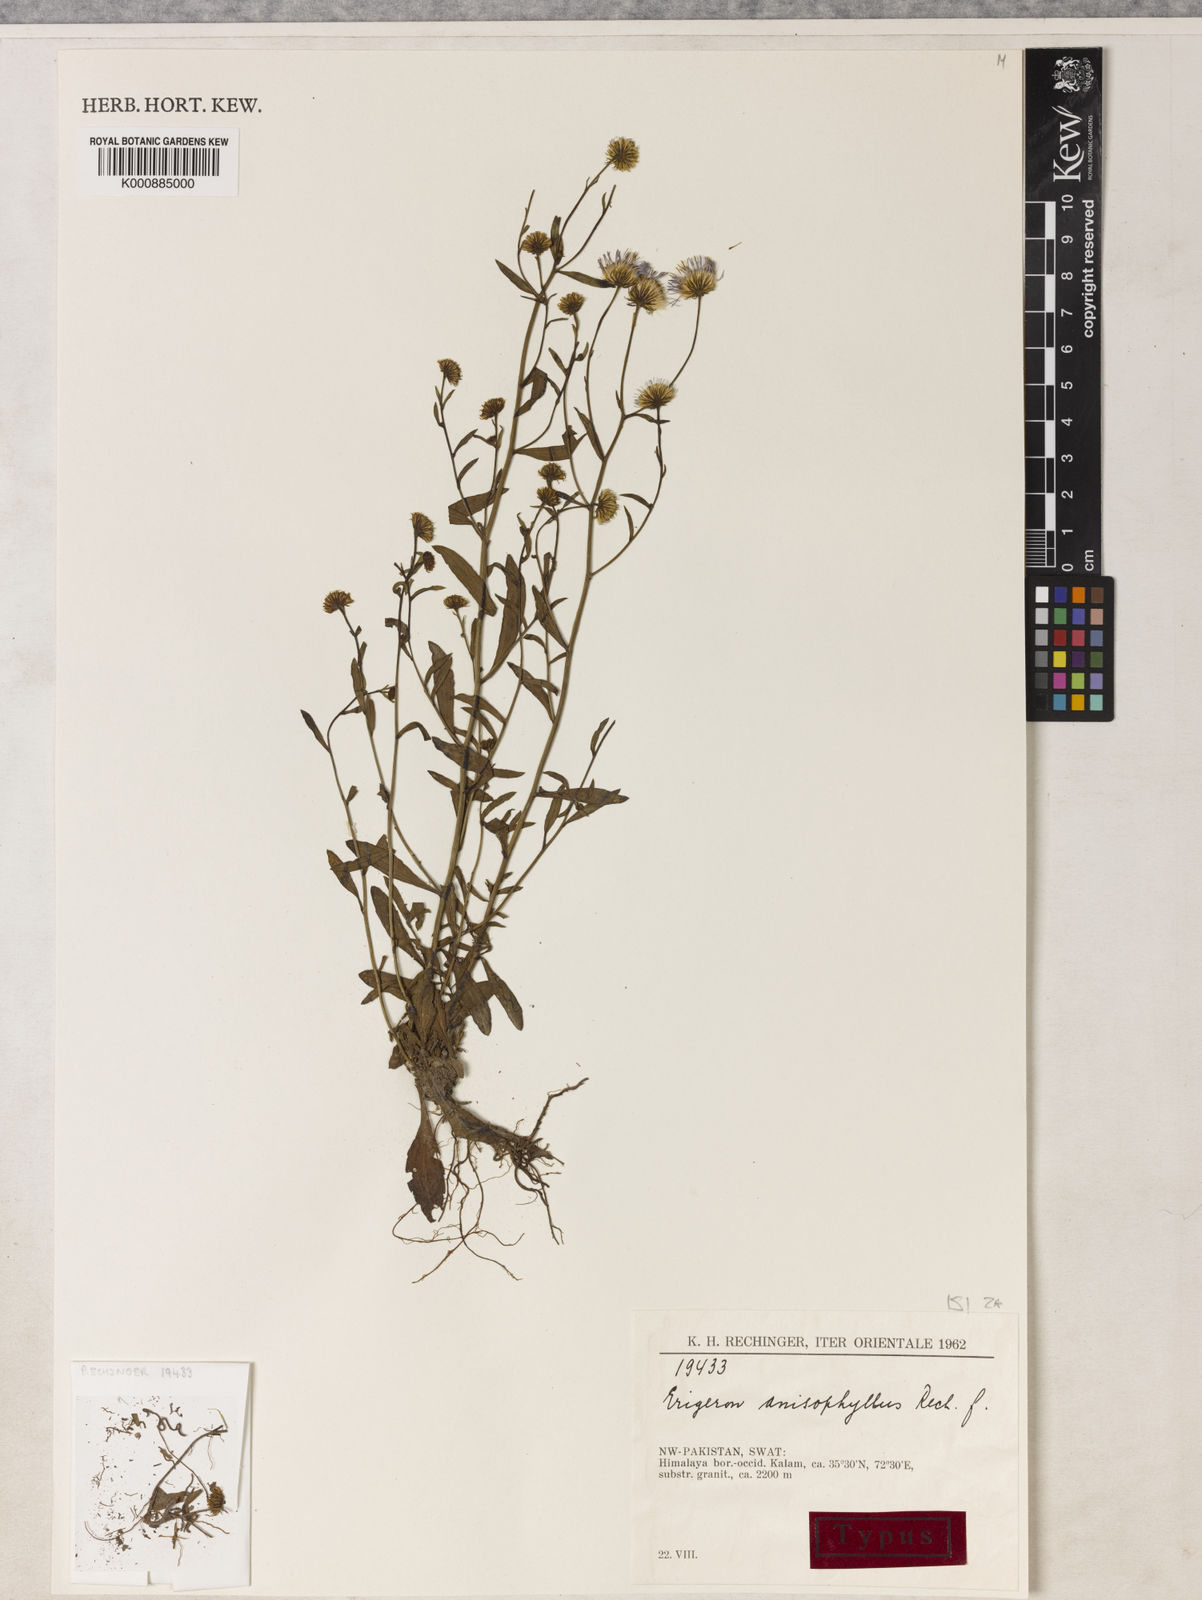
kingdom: Plantae
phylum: Tracheophyta
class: Magnoliopsida
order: Asterales
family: Asteraceae
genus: Erigeron
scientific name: Erigeron
